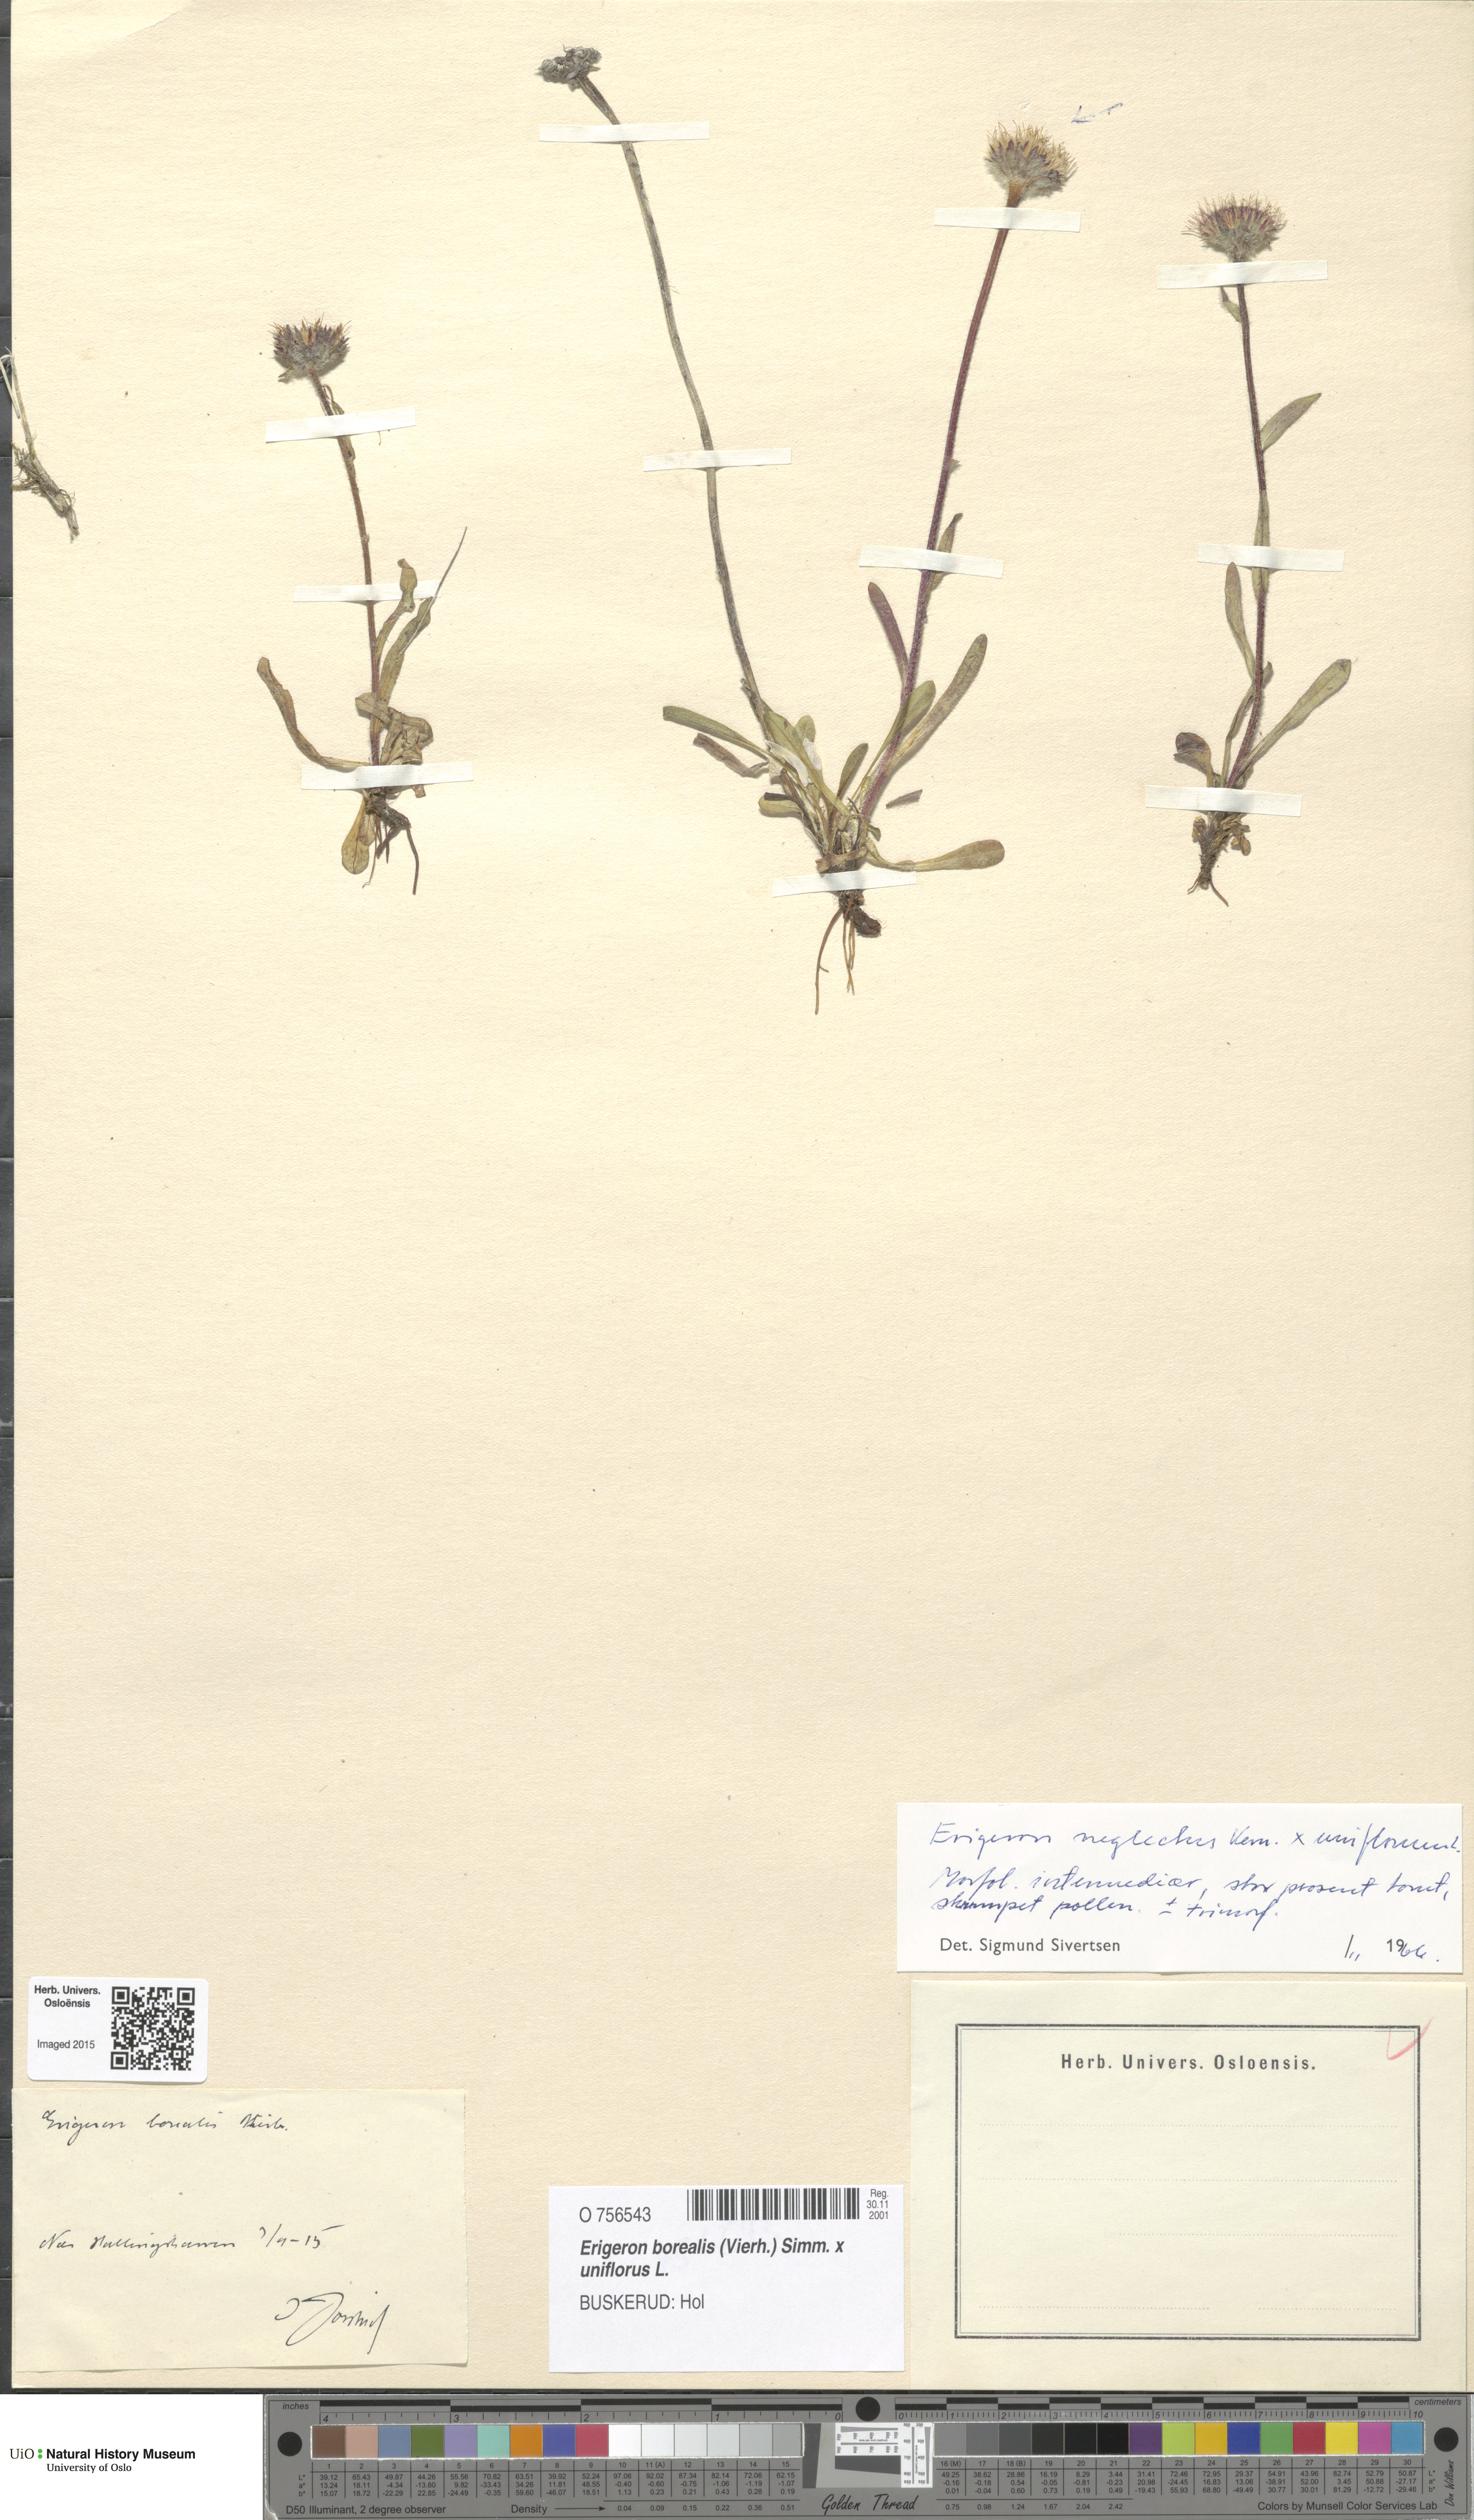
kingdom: Plantae
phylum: Tracheophyta
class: Magnoliopsida
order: Asterales
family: Asteraceae
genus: Erigeron
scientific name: Erigeron
